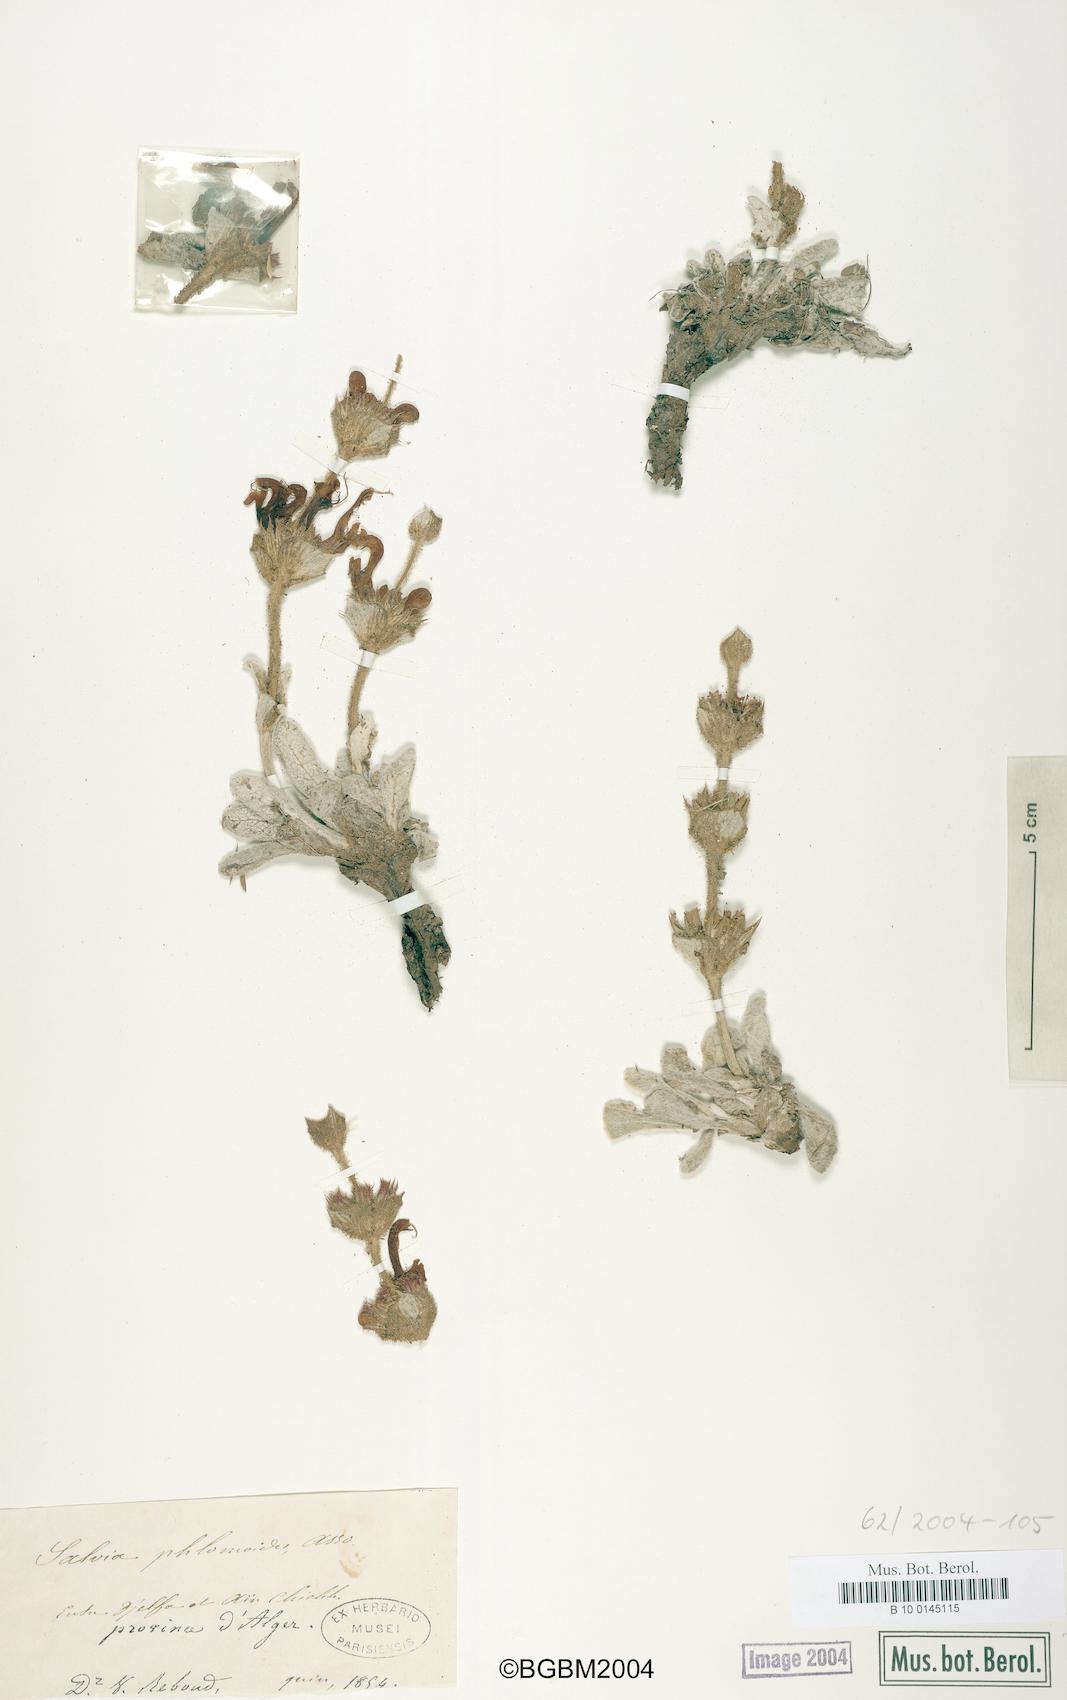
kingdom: Plantae
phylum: Tracheophyta
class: Magnoliopsida
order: Lamiales
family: Lamiaceae
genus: Salvia
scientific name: Salvia phlomoides
